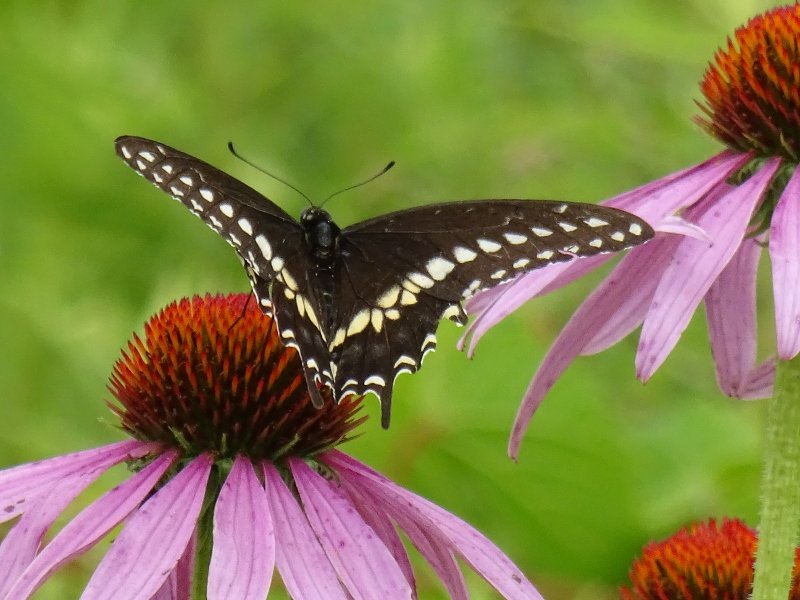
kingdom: Animalia
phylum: Arthropoda
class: Insecta
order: Lepidoptera
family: Papilionidae
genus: Papilio
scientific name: Papilio polyxenes
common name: Black Swallowtail
